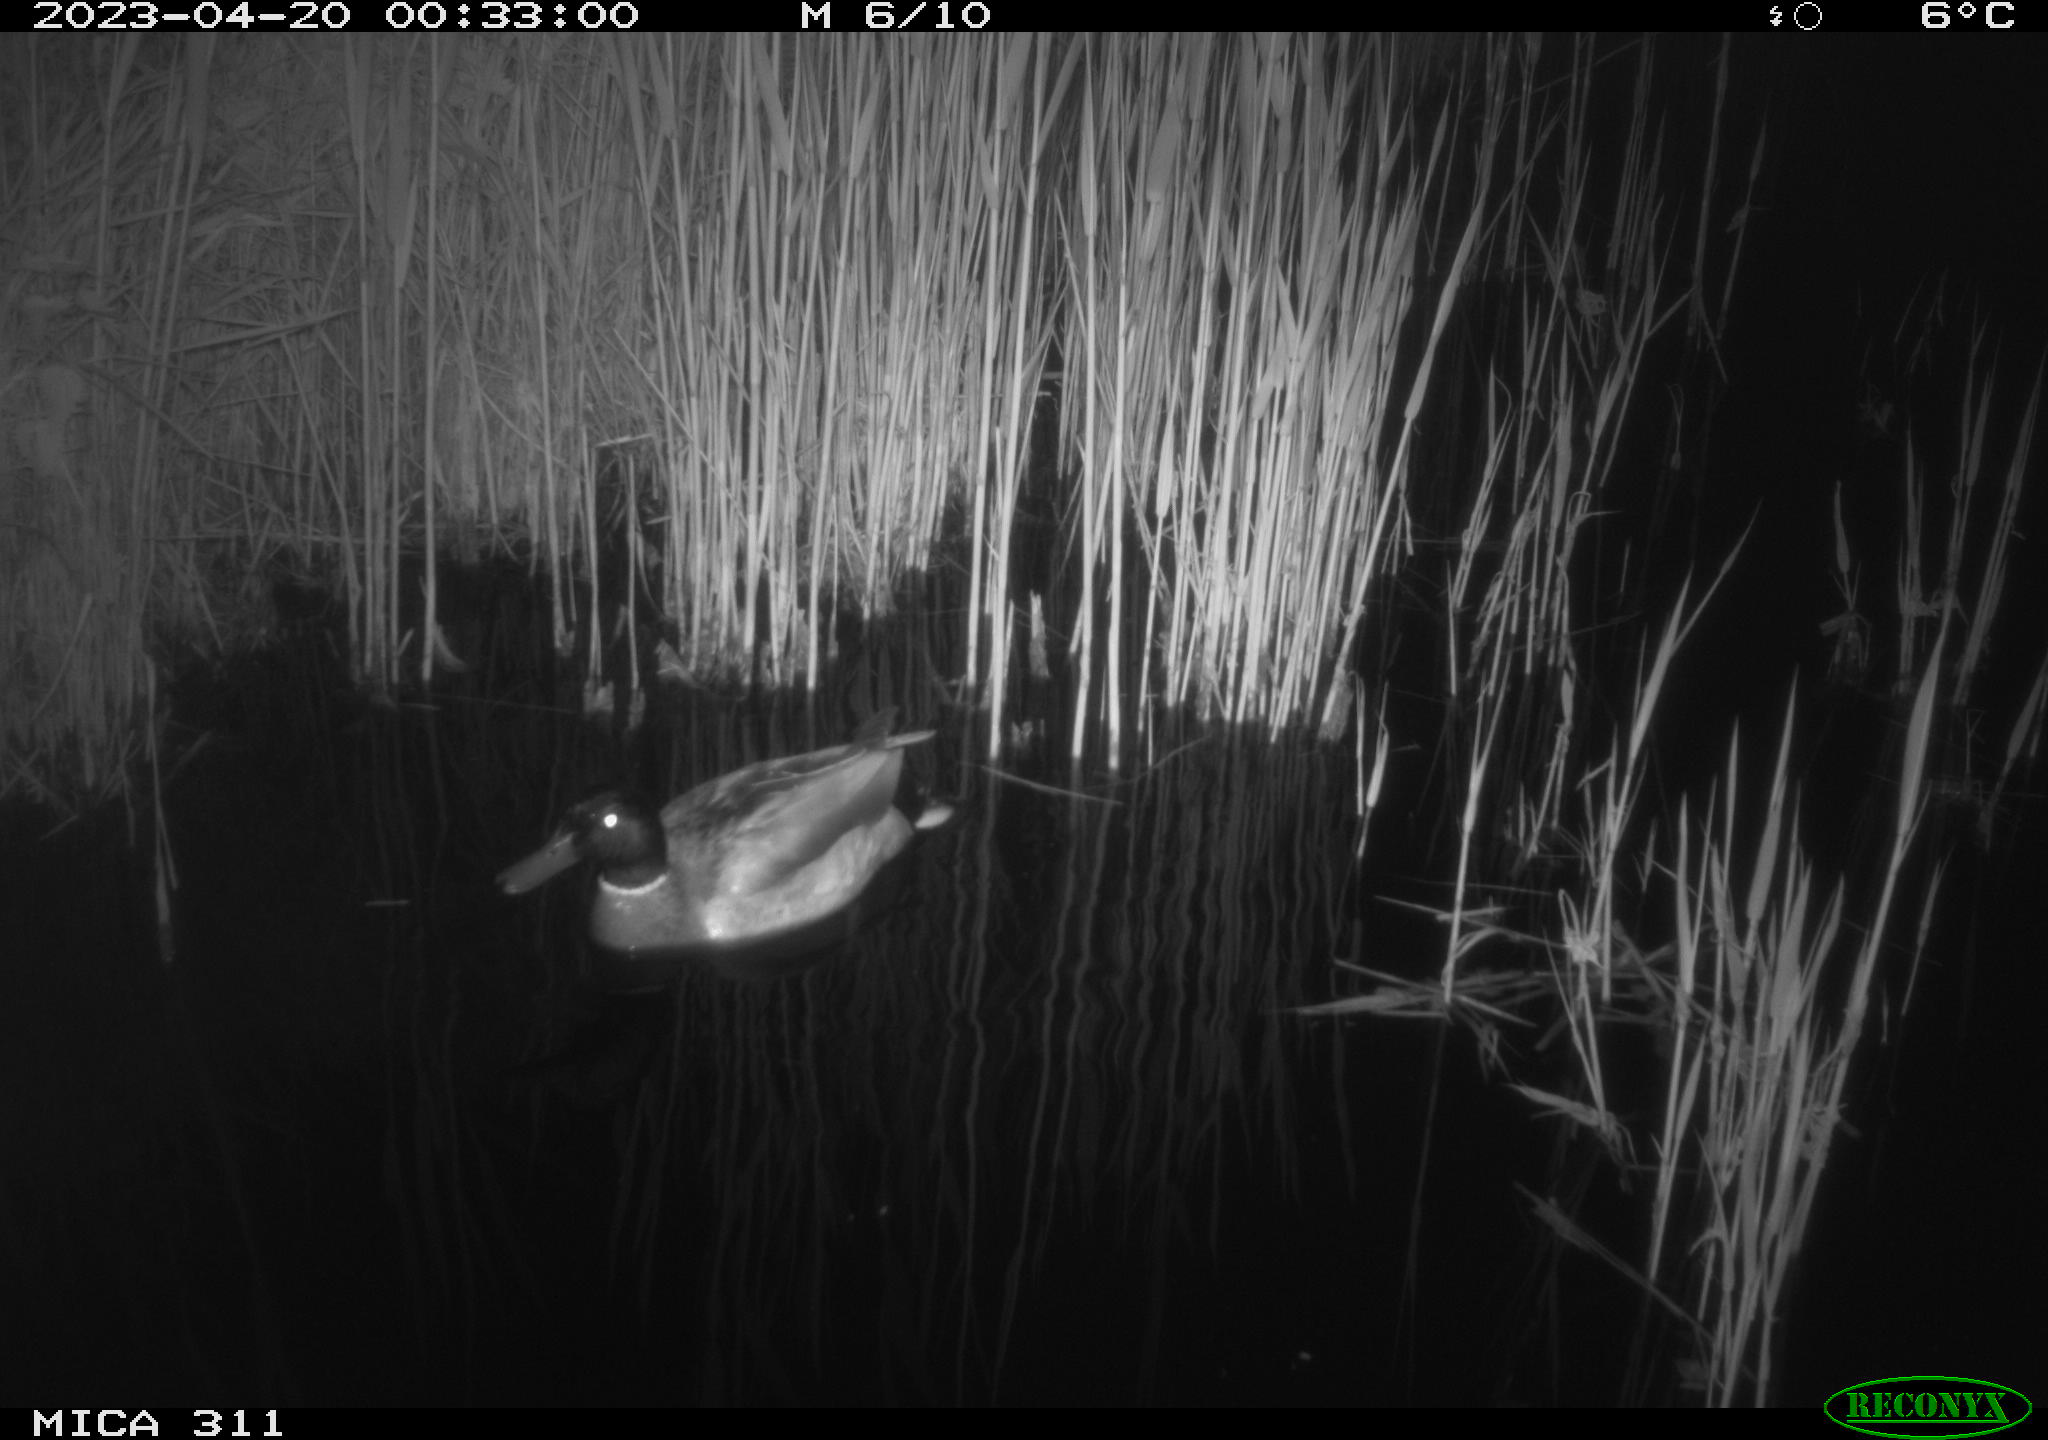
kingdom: Animalia
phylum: Chordata
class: Aves
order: Anseriformes
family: Anatidae
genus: Anas
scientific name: Anas
